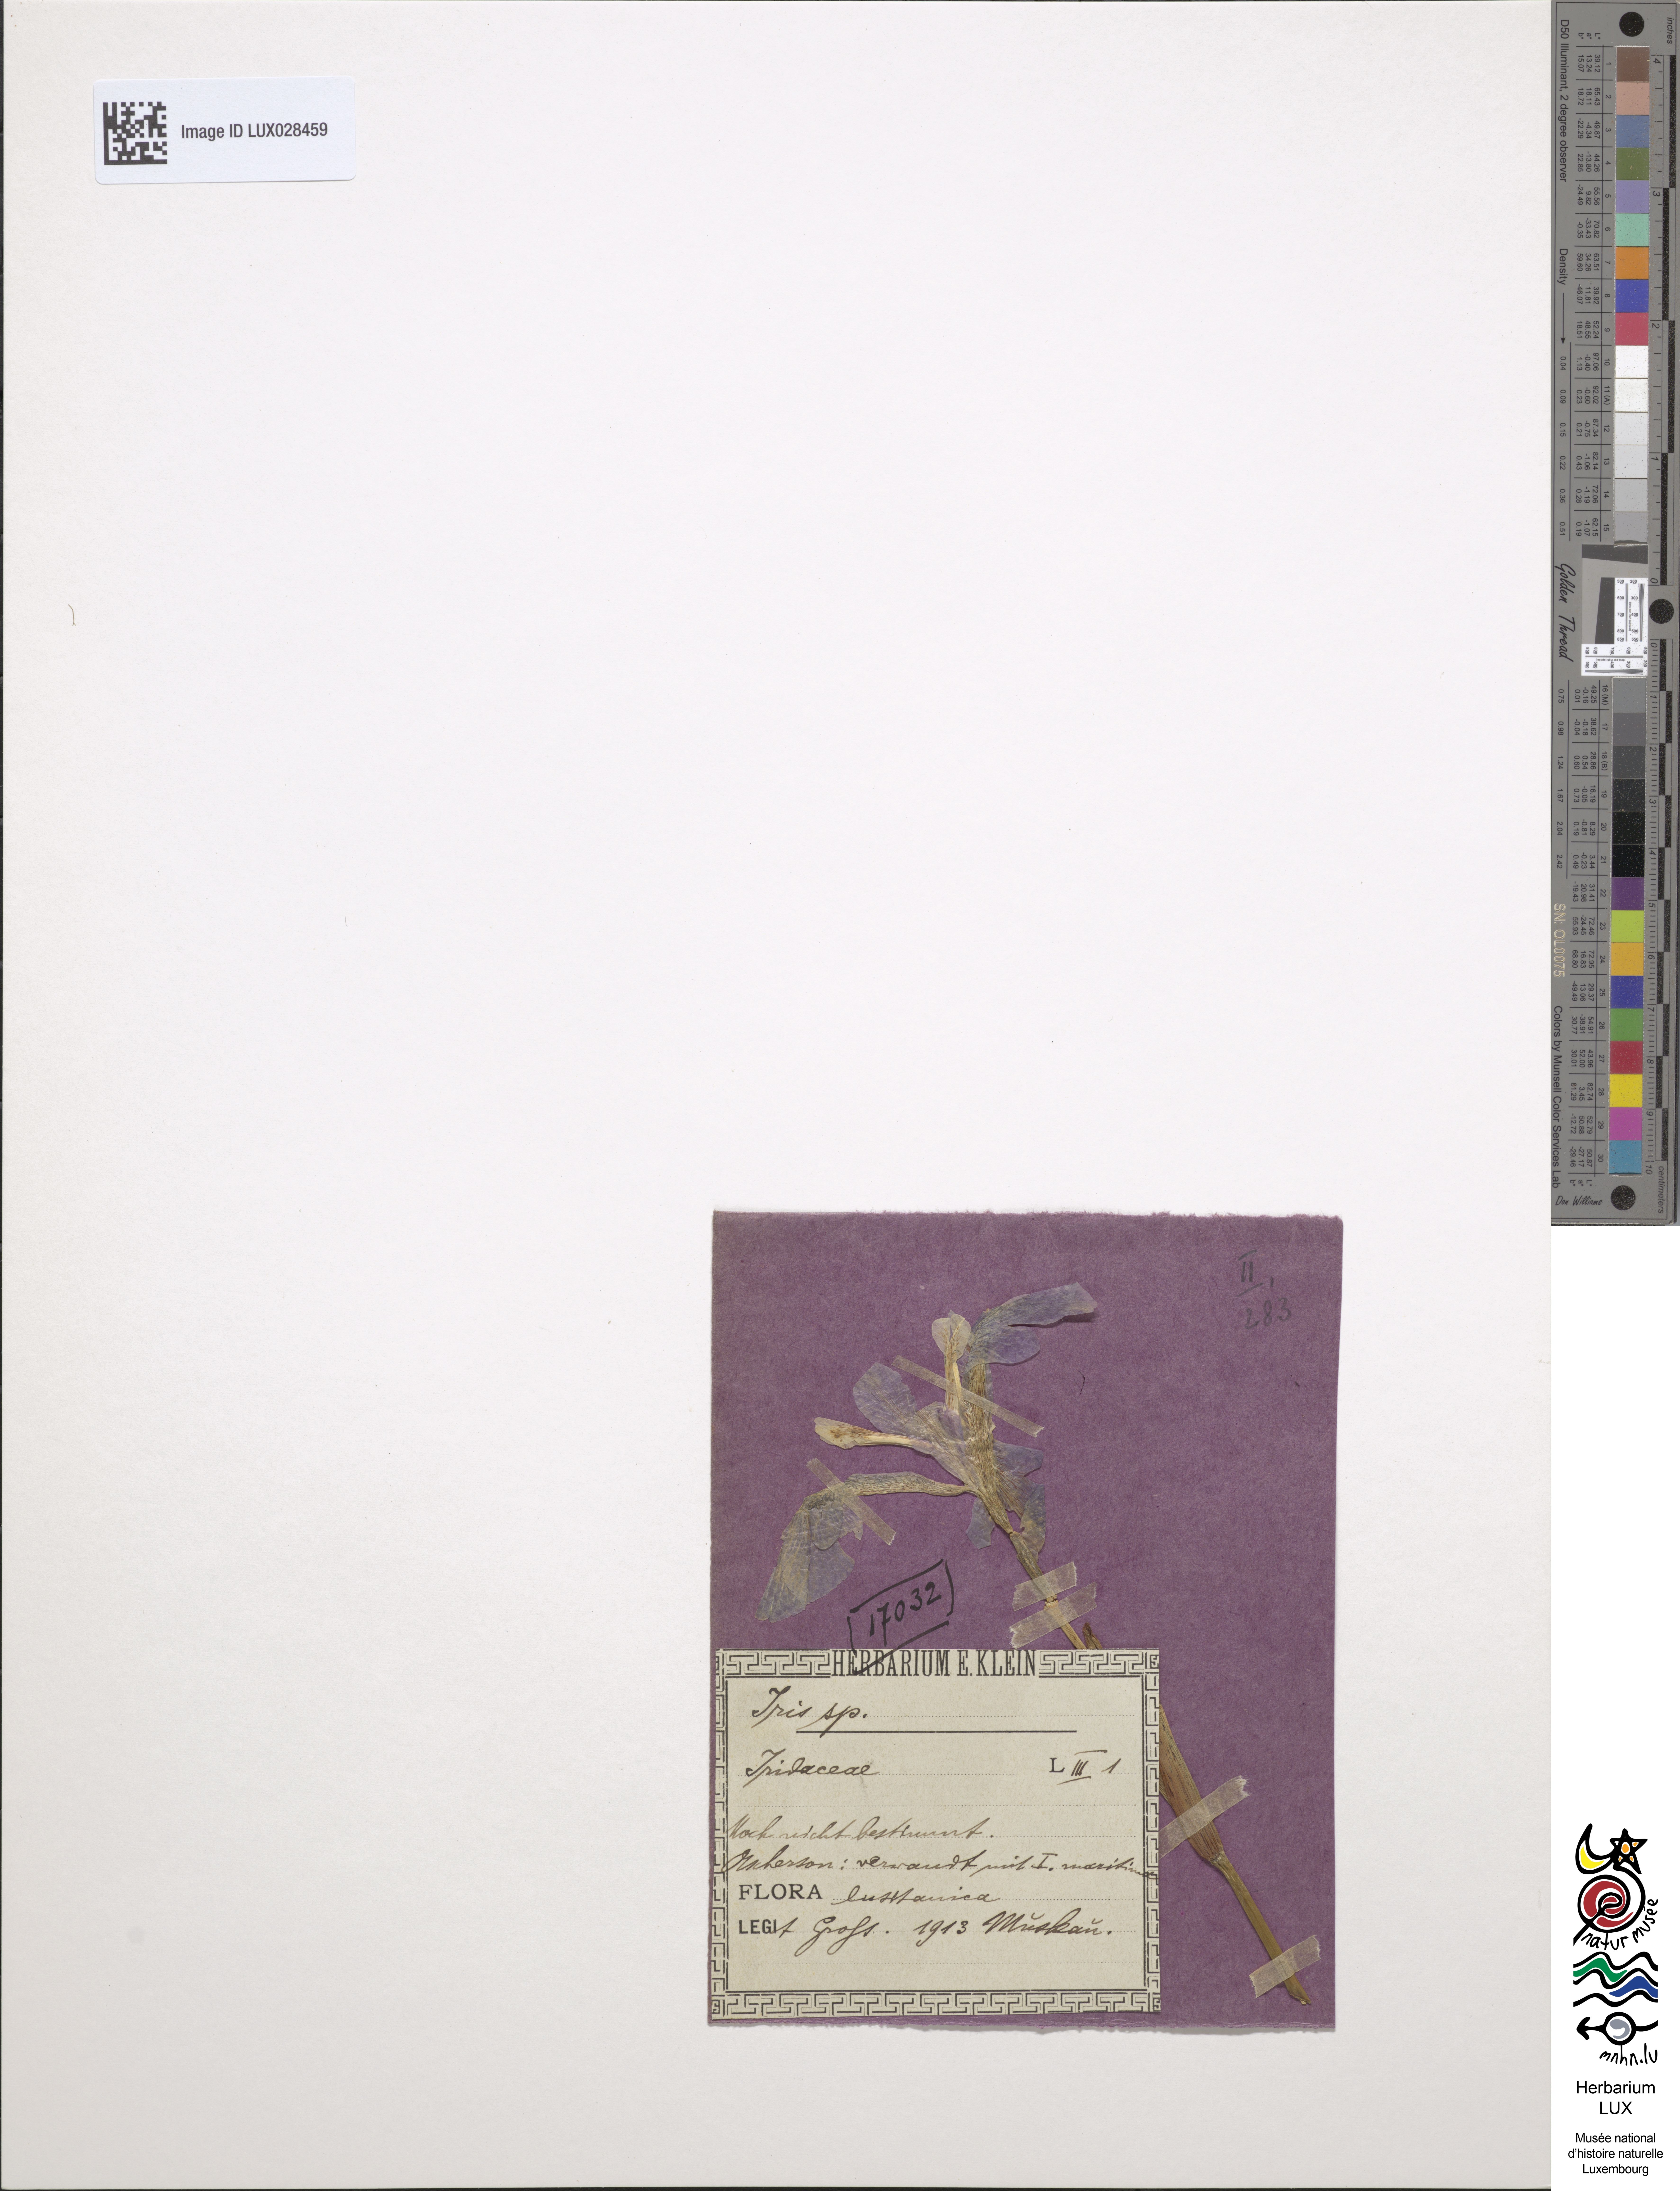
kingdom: Animalia
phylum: Arthropoda
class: Insecta
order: Coleoptera
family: Cerambycidae
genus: Itis
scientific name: Itis
